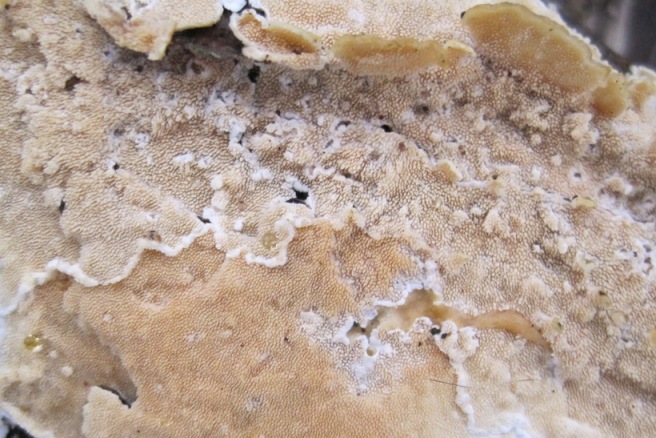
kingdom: Fungi
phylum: Basidiomycota
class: Agaricomycetes
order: Polyporales
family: Steccherinaceae
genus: Steccherinum
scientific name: Steccherinum ochraceum
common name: almindelig skønpig
